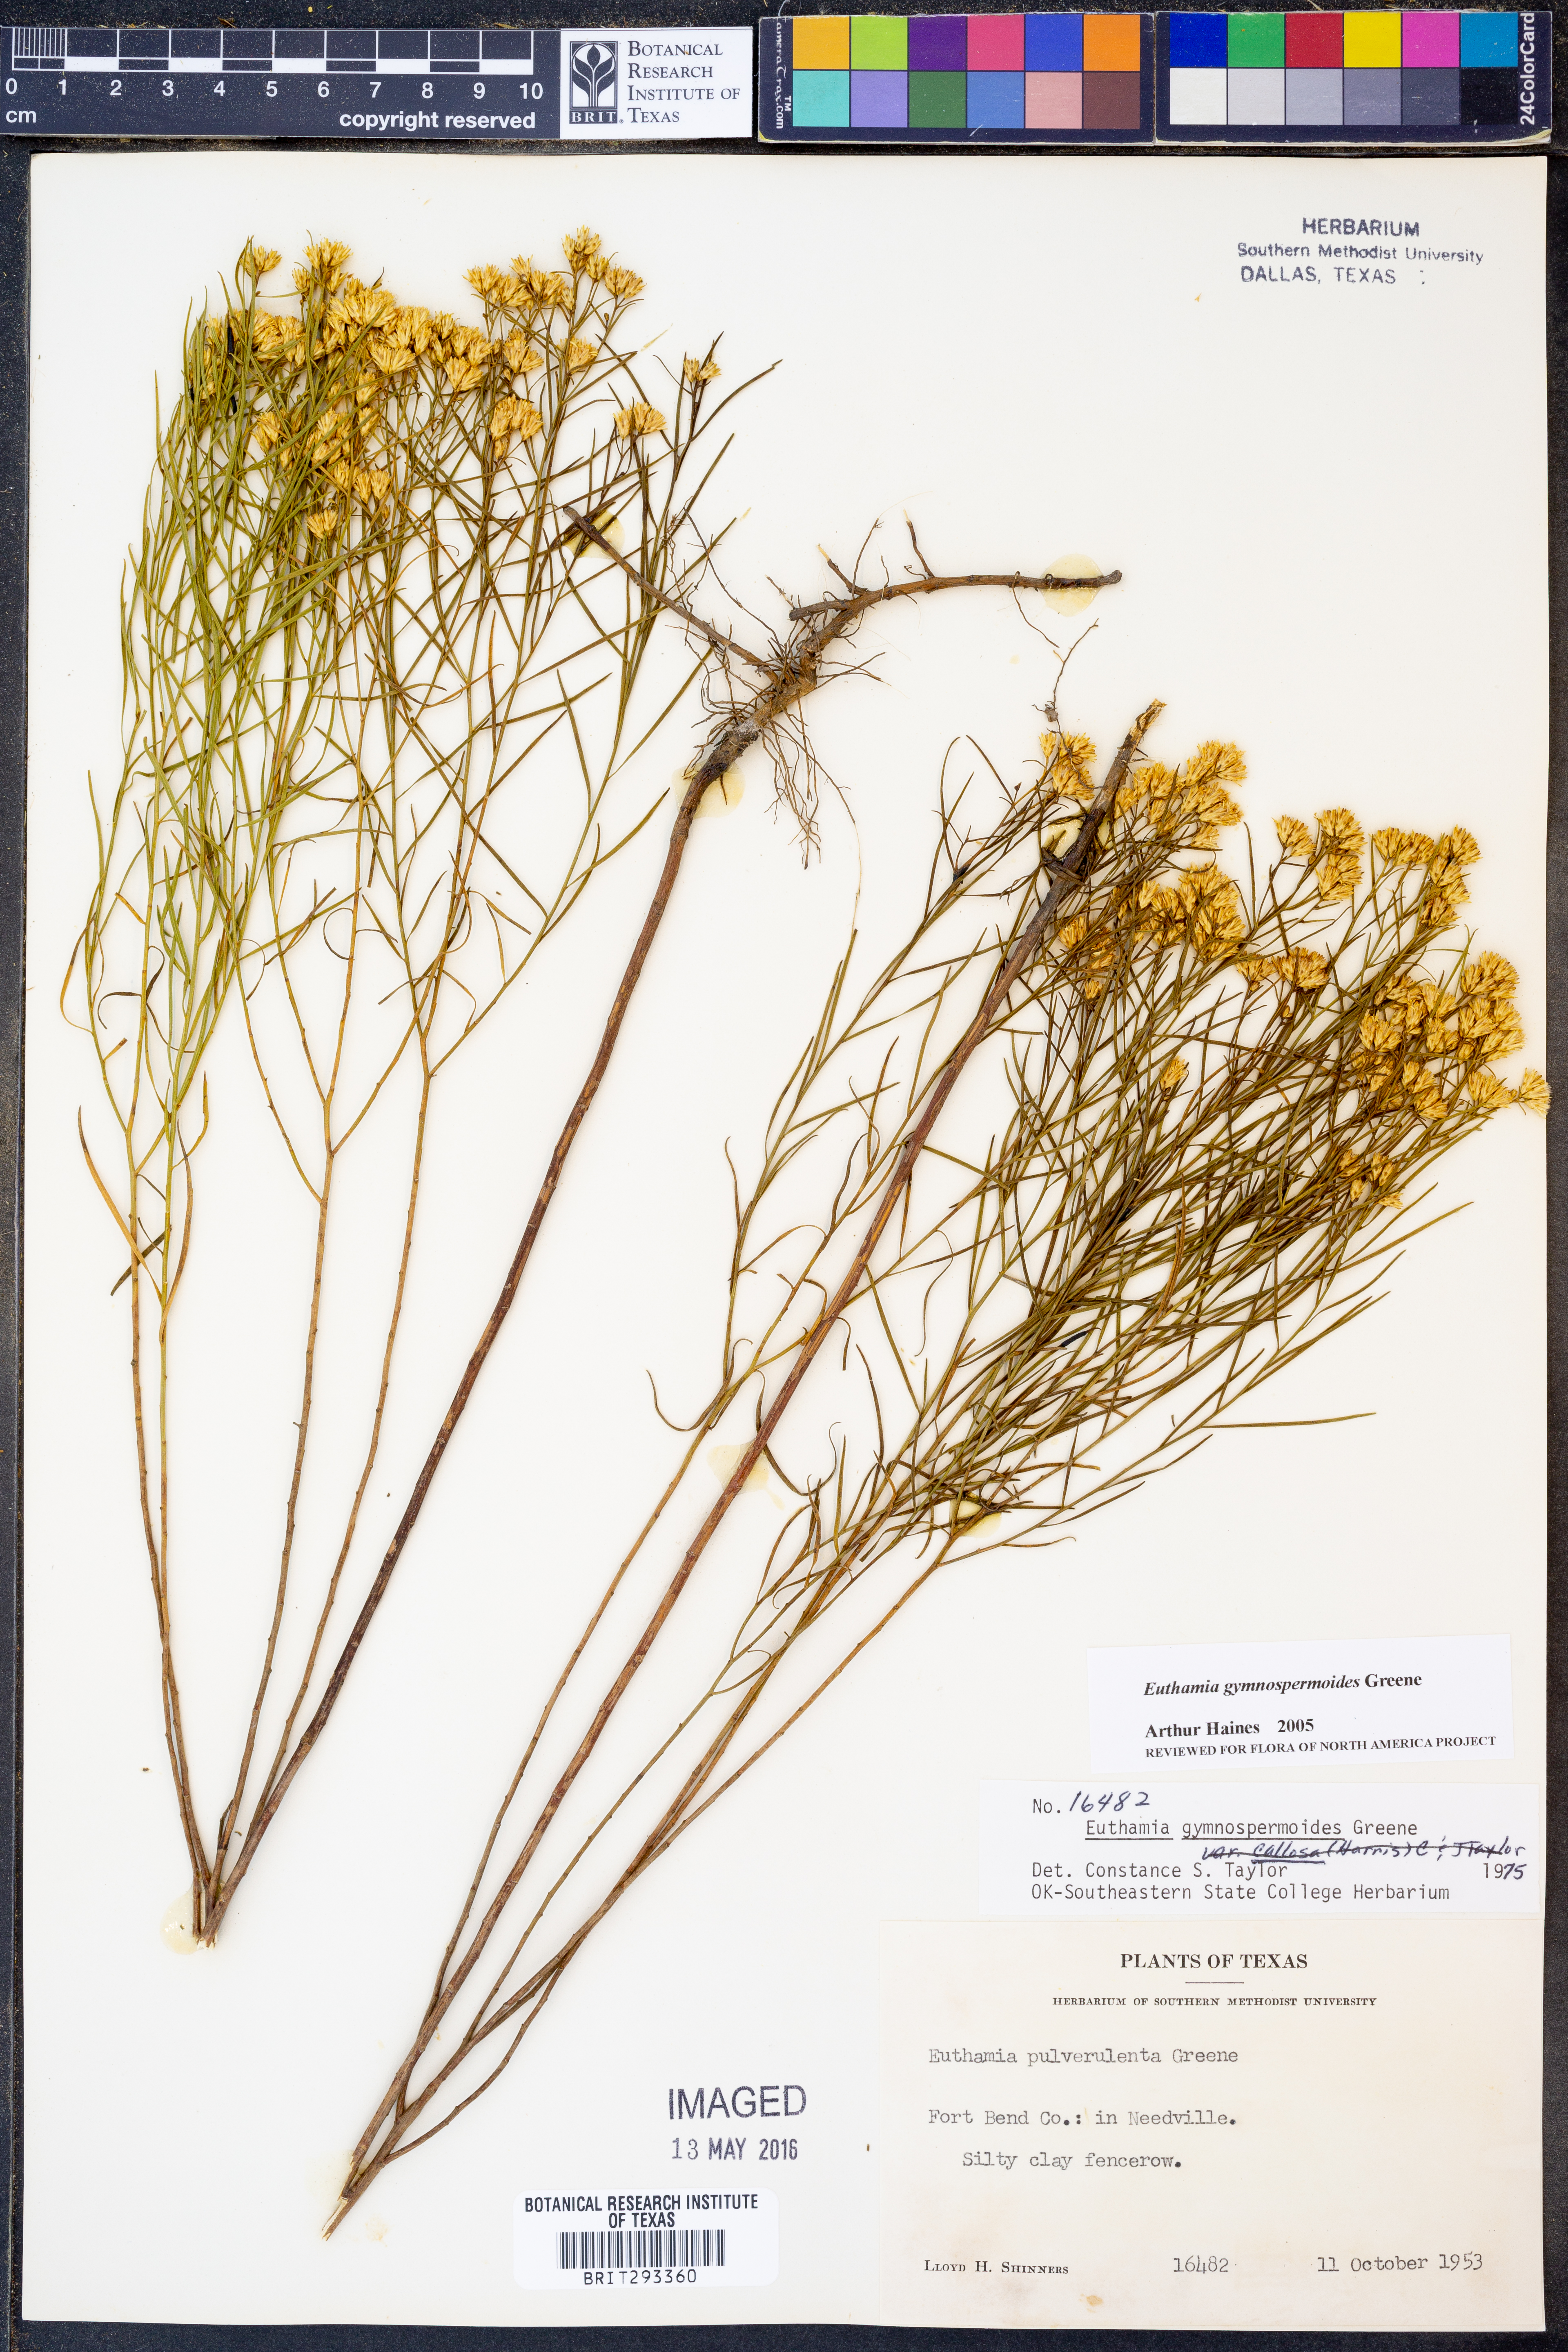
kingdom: Plantae
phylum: Tracheophyta
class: Magnoliopsida
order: Asterales
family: Asteraceae
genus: Euthamia
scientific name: Euthamia gymnospermoides
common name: Great plains goldentop
